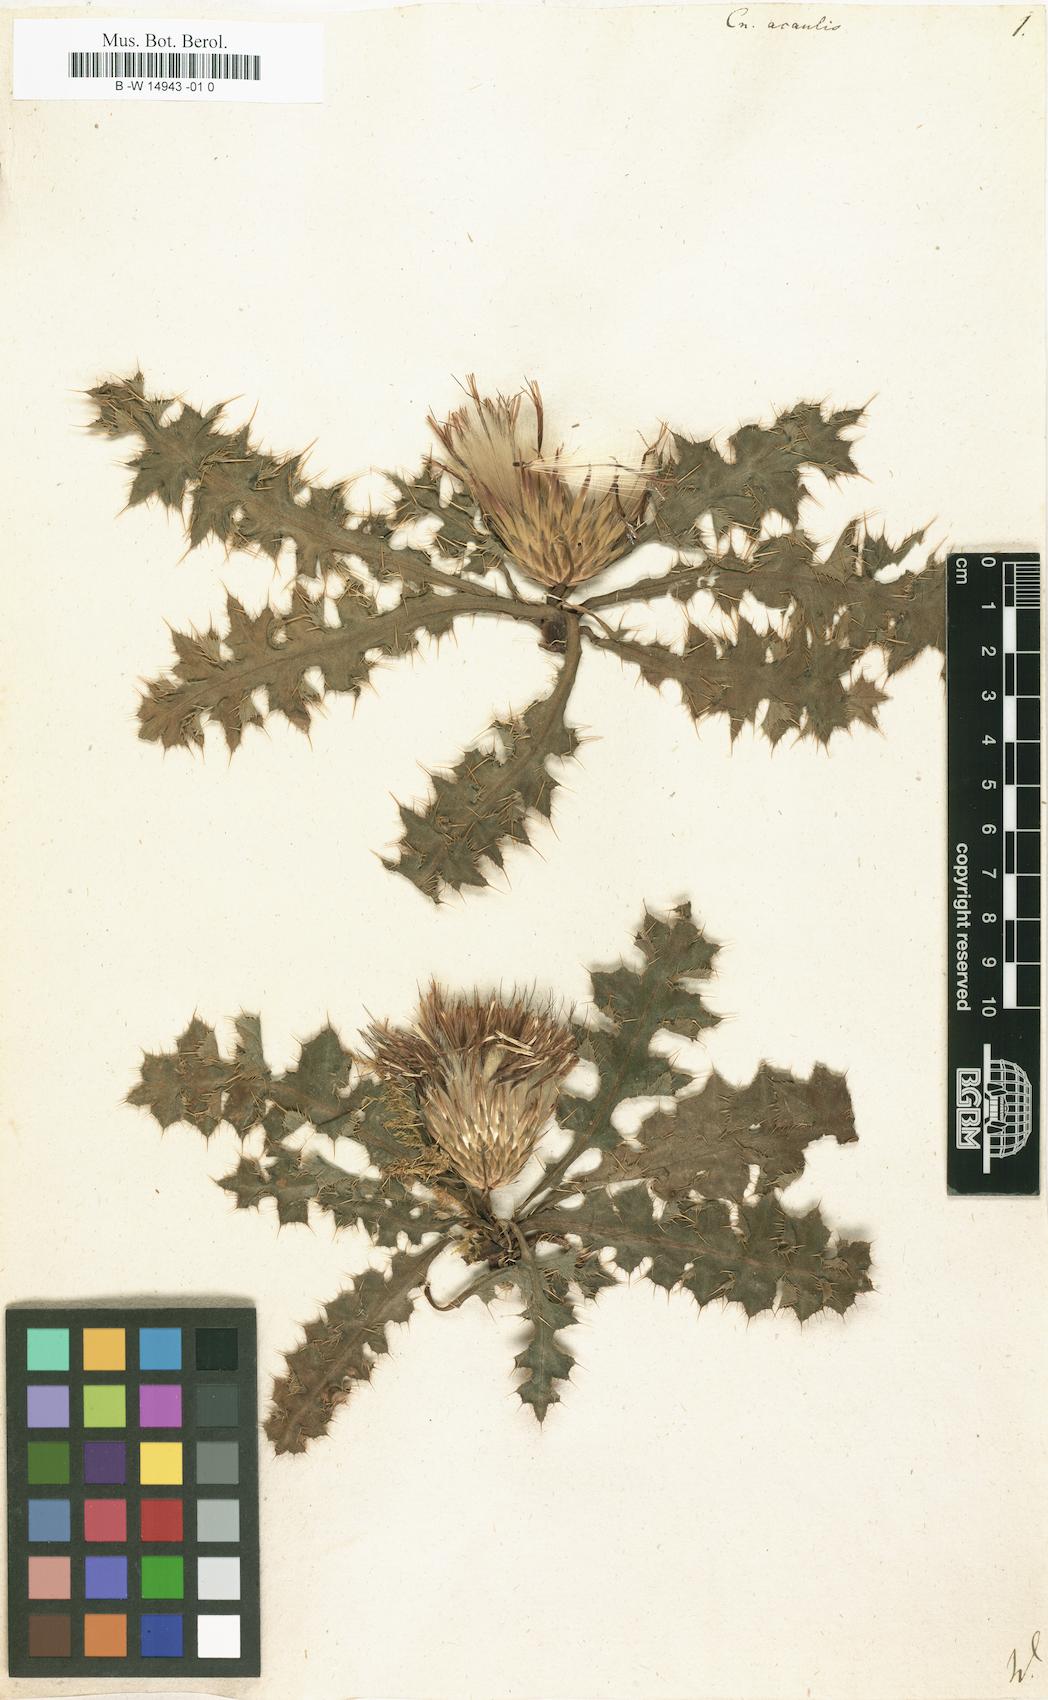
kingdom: Plantae
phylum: Tracheophyta
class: Magnoliopsida
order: Asterales
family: Asteraceae
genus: Cirsium
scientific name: Cirsium acaule
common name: Dwarf thistle
